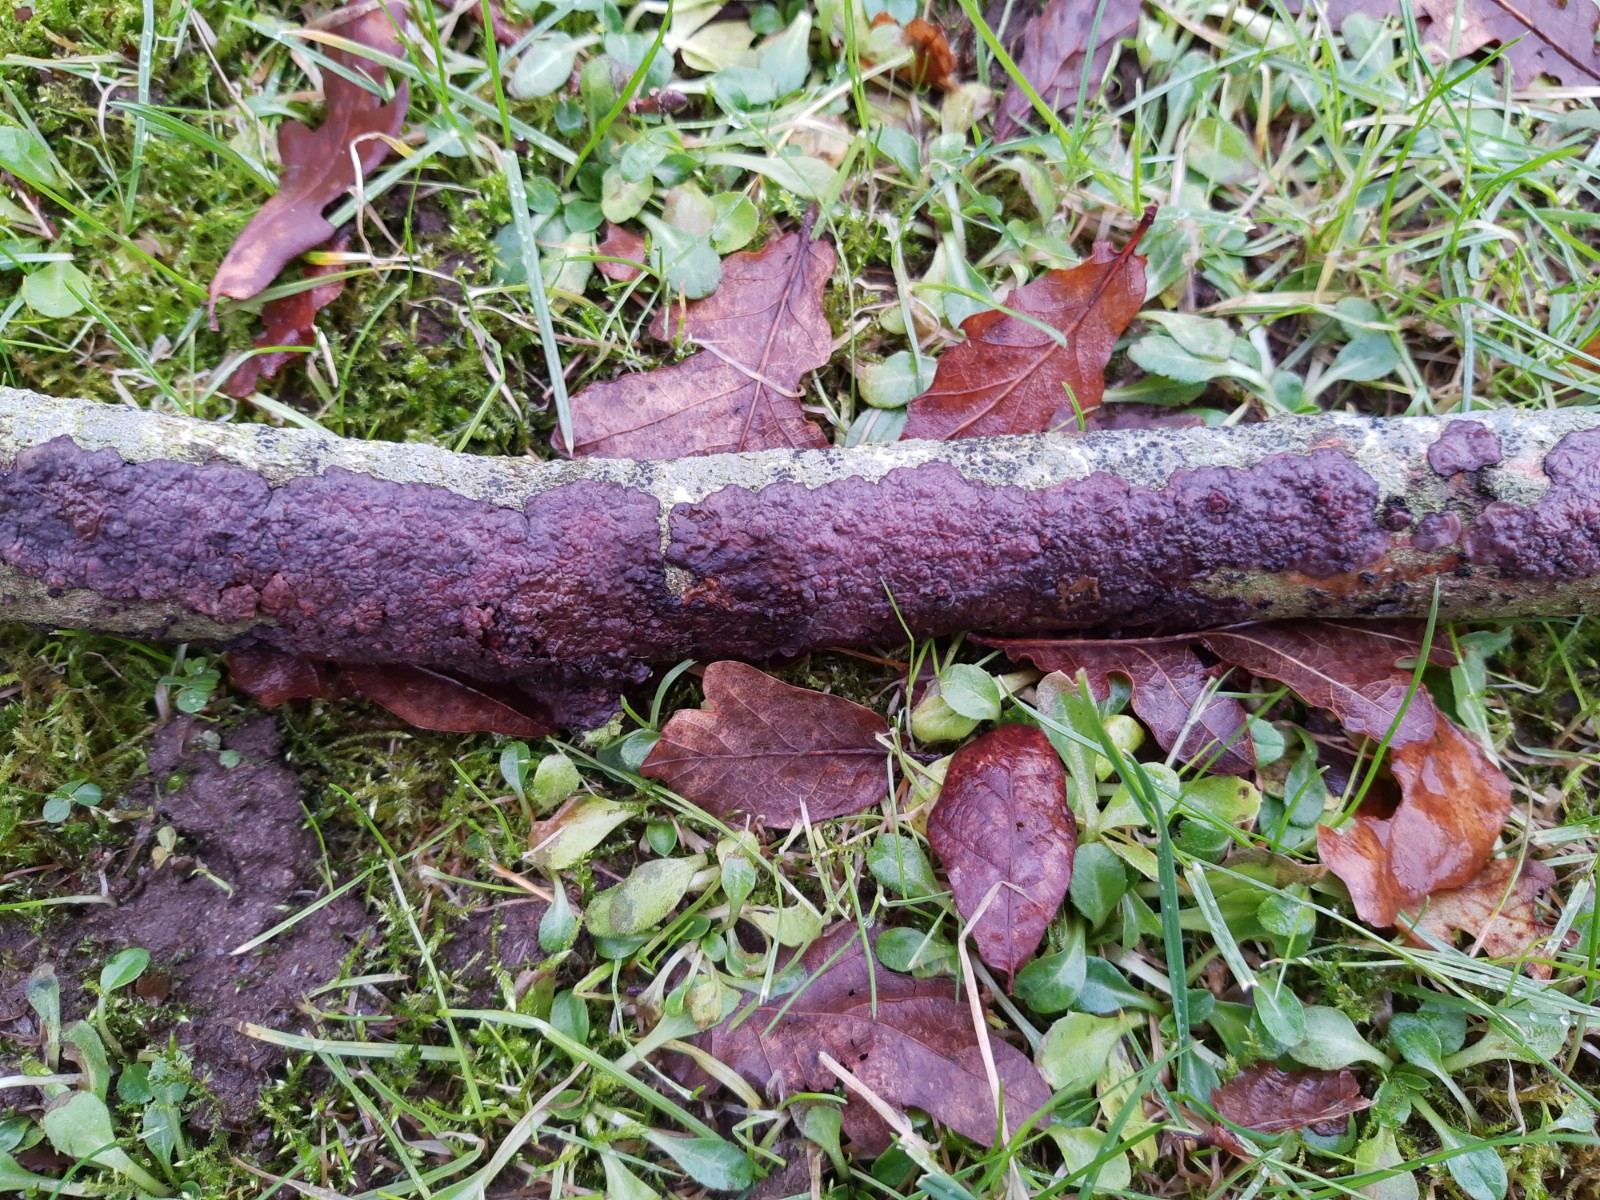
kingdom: Fungi
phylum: Basidiomycota
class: Agaricomycetes
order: Russulales
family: Peniophoraceae
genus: Peniophora
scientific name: Peniophora quercina
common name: ege-voksskind
